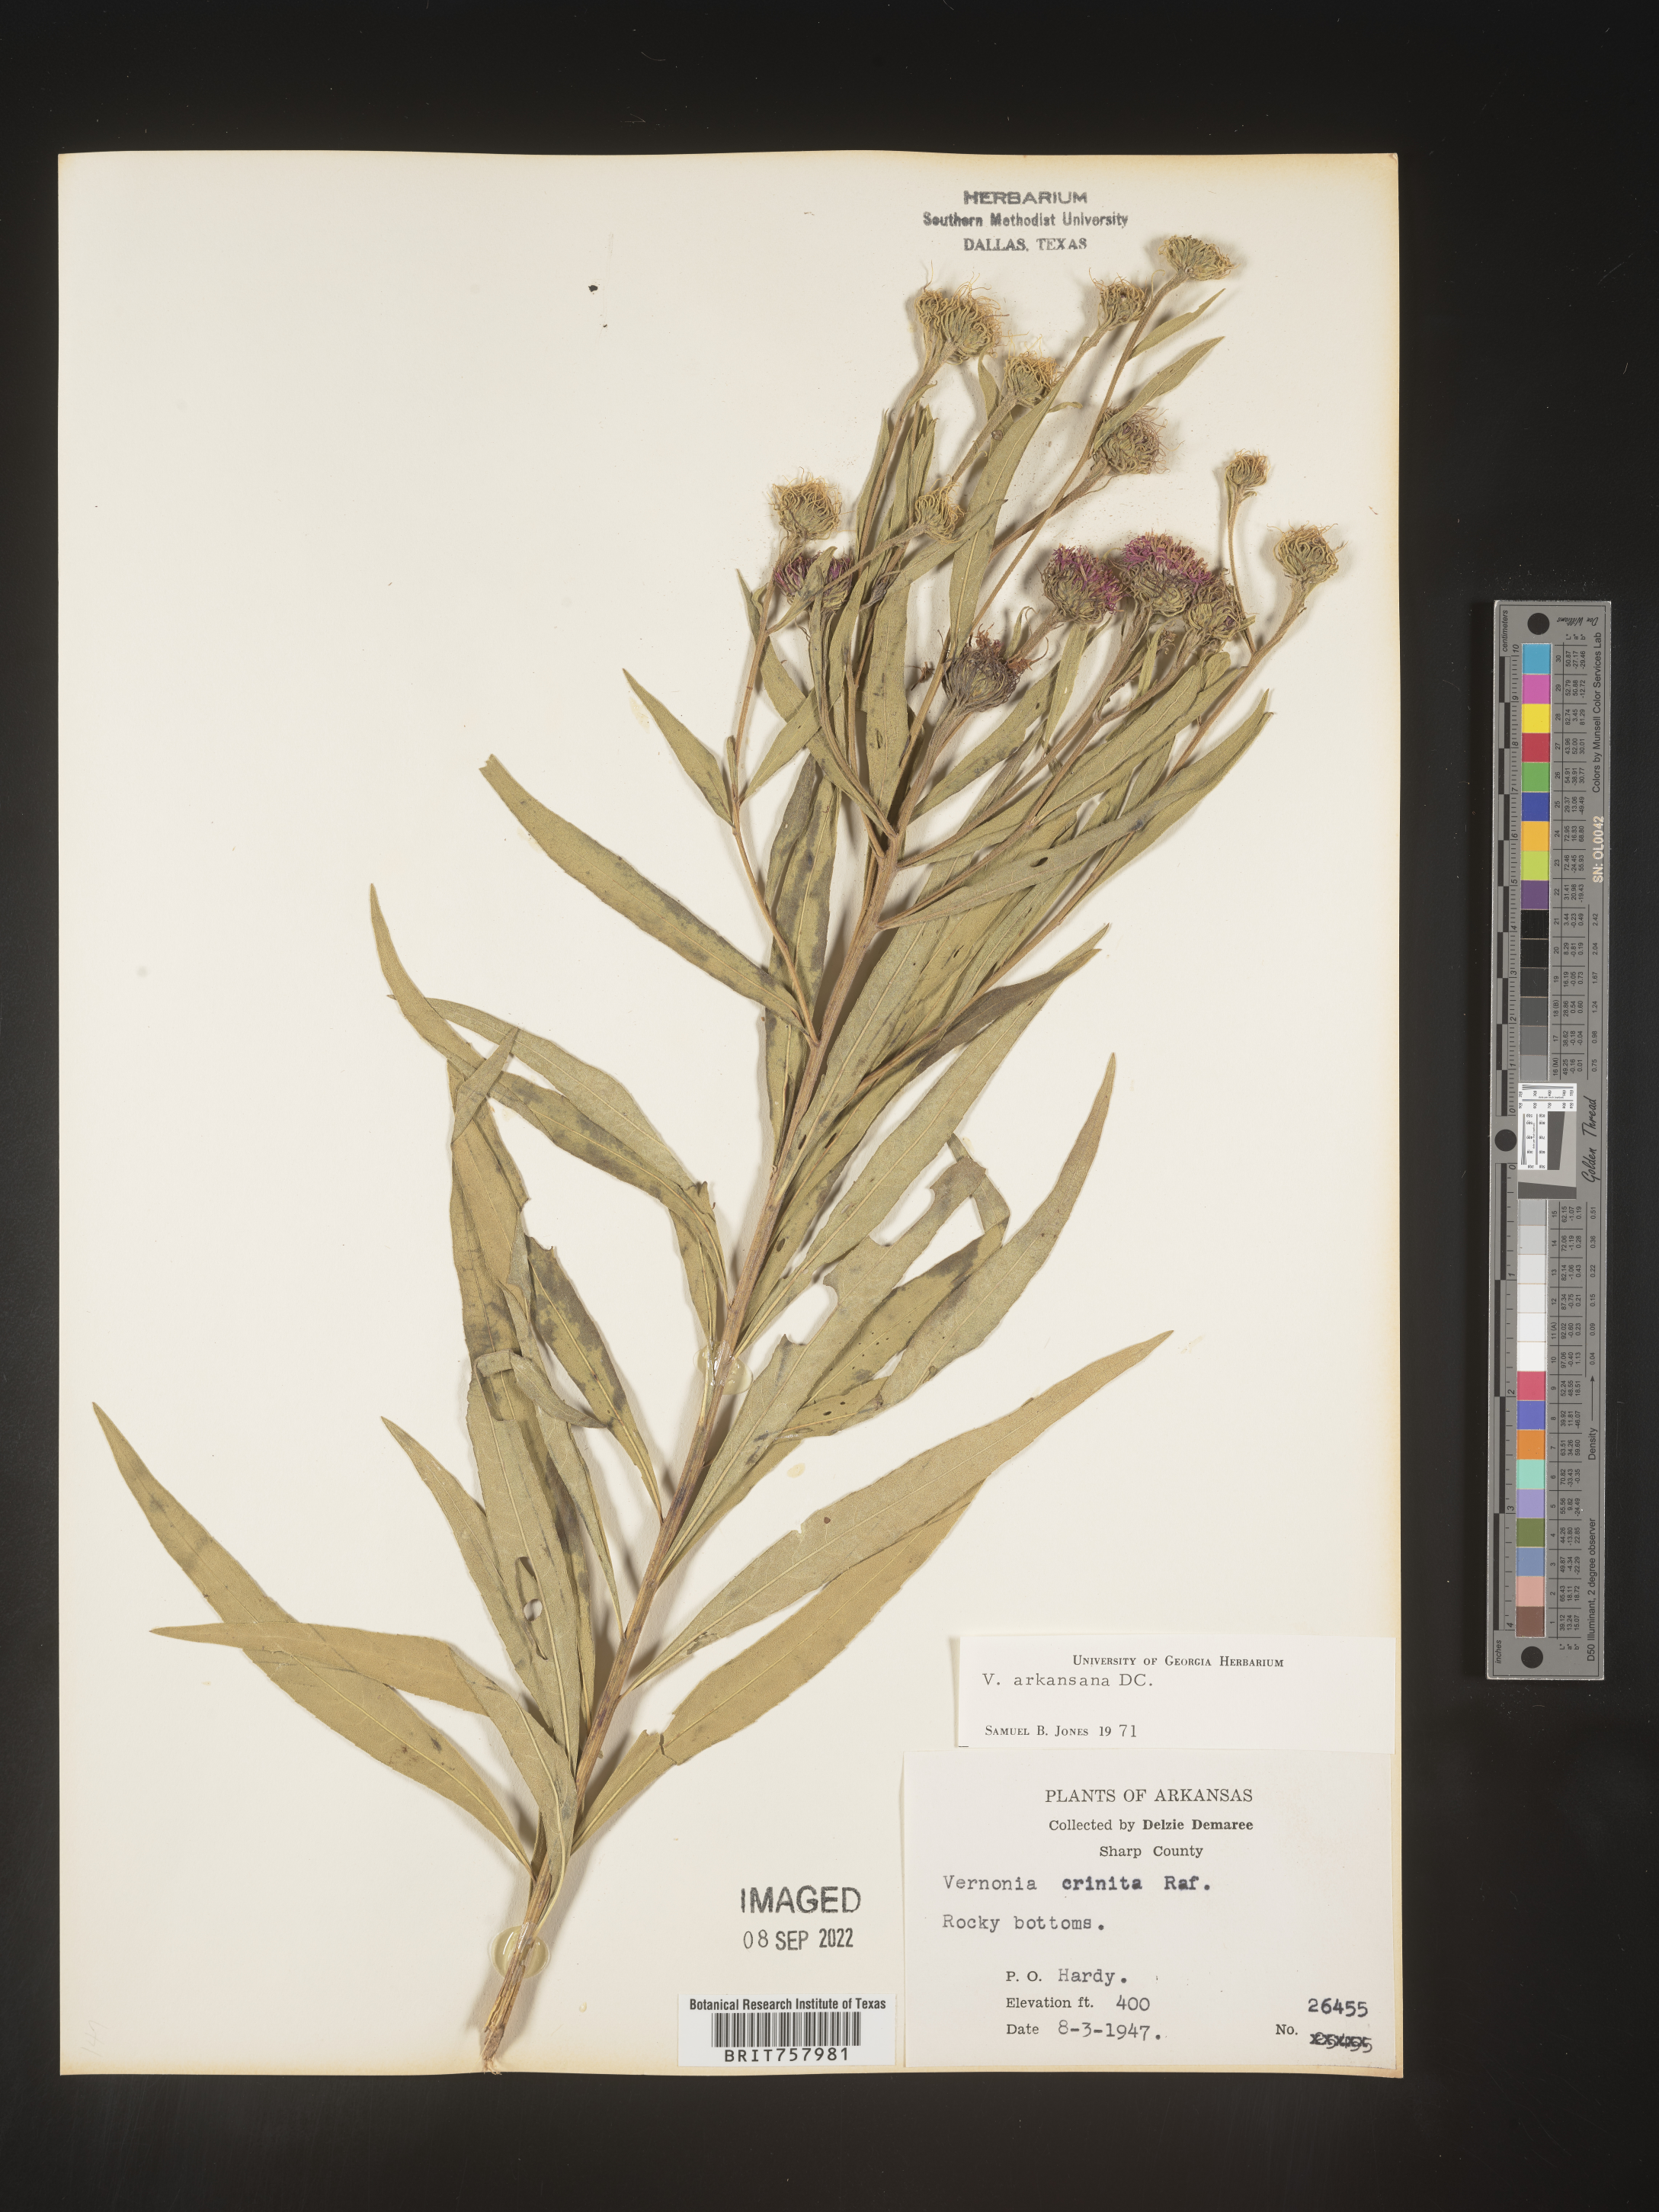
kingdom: Plantae
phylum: Tracheophyta
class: Magnoliopsida
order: Asterales
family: Asteraceae
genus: Vernonia
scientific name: Vernonia arkansana
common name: Ozark ironweed
